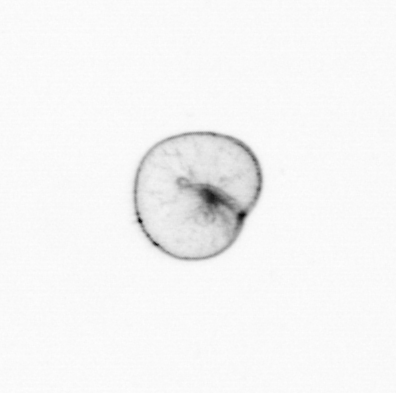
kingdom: Chromista
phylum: Myzozoa
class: Dinophyceae
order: Noctilucales
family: Noctilucaceae
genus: Noctiluca
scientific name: Noctiluca scintillans
